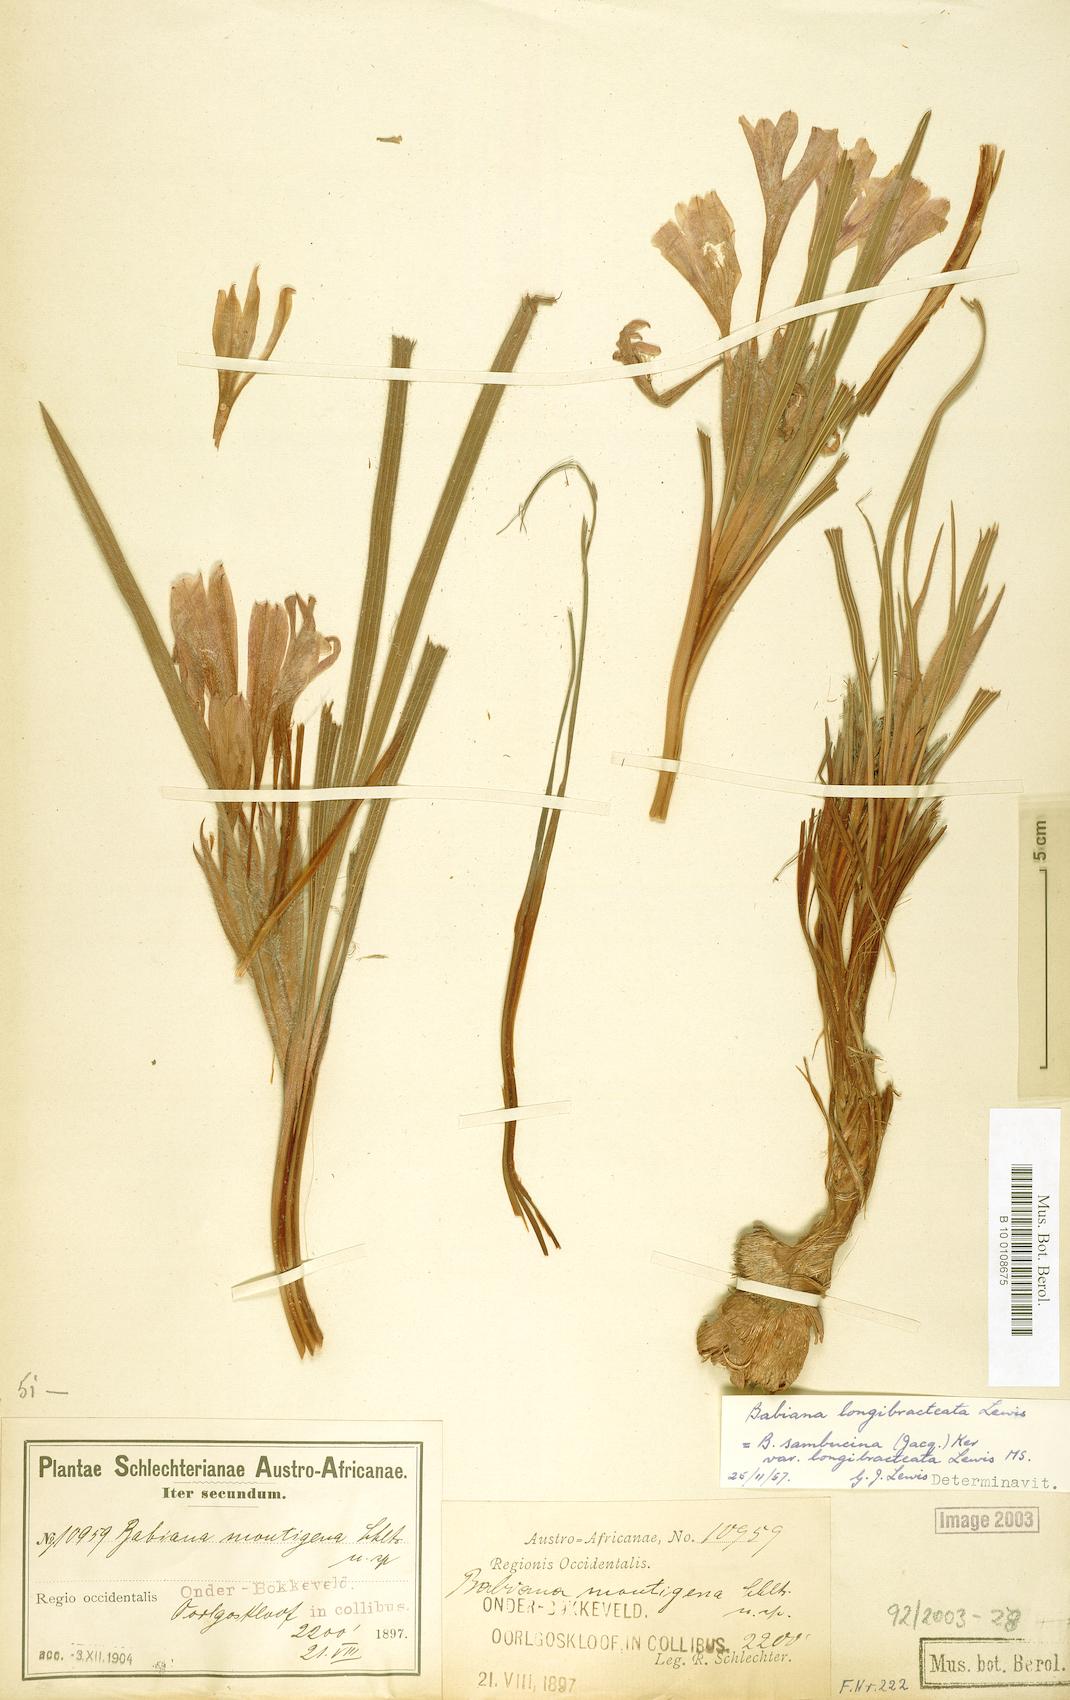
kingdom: Plantae
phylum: Tracheophyta
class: Liliopsida
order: Asparagales
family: Iridaceae
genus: Babiana
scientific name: Babiana sambucina
